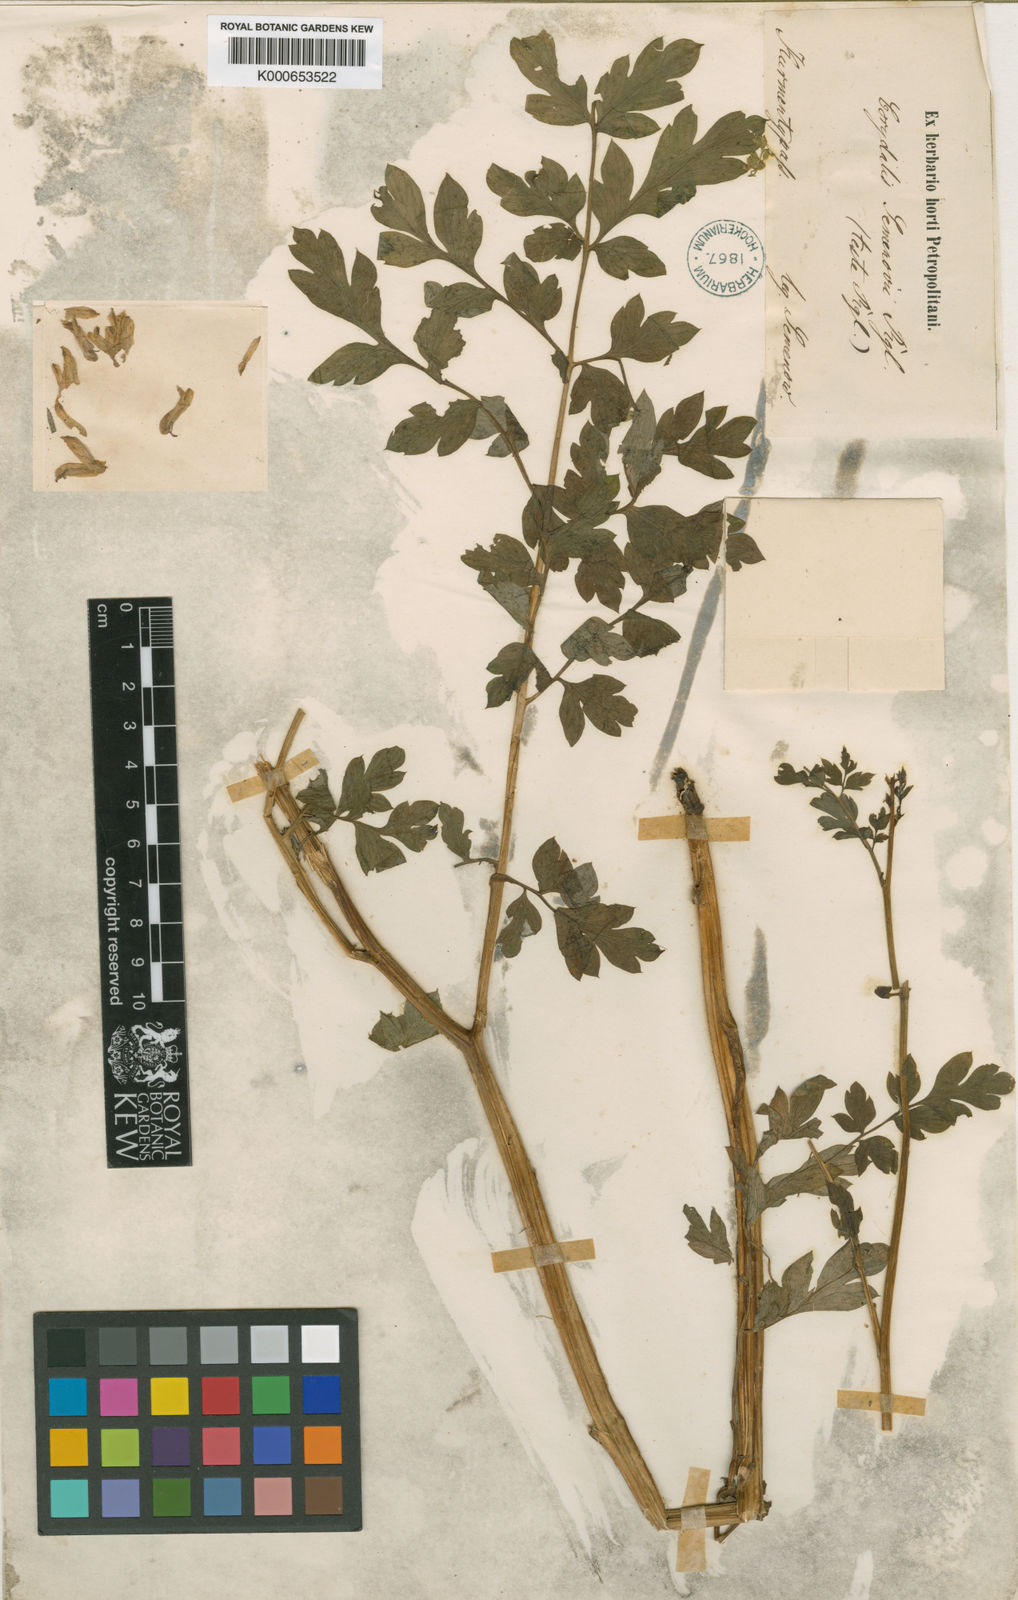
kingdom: Plantae
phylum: Tracheophyta
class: Magnoliopsida
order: Ranunculales
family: Papaveraceae
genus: Corydalis
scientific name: Corydalis semenowii
